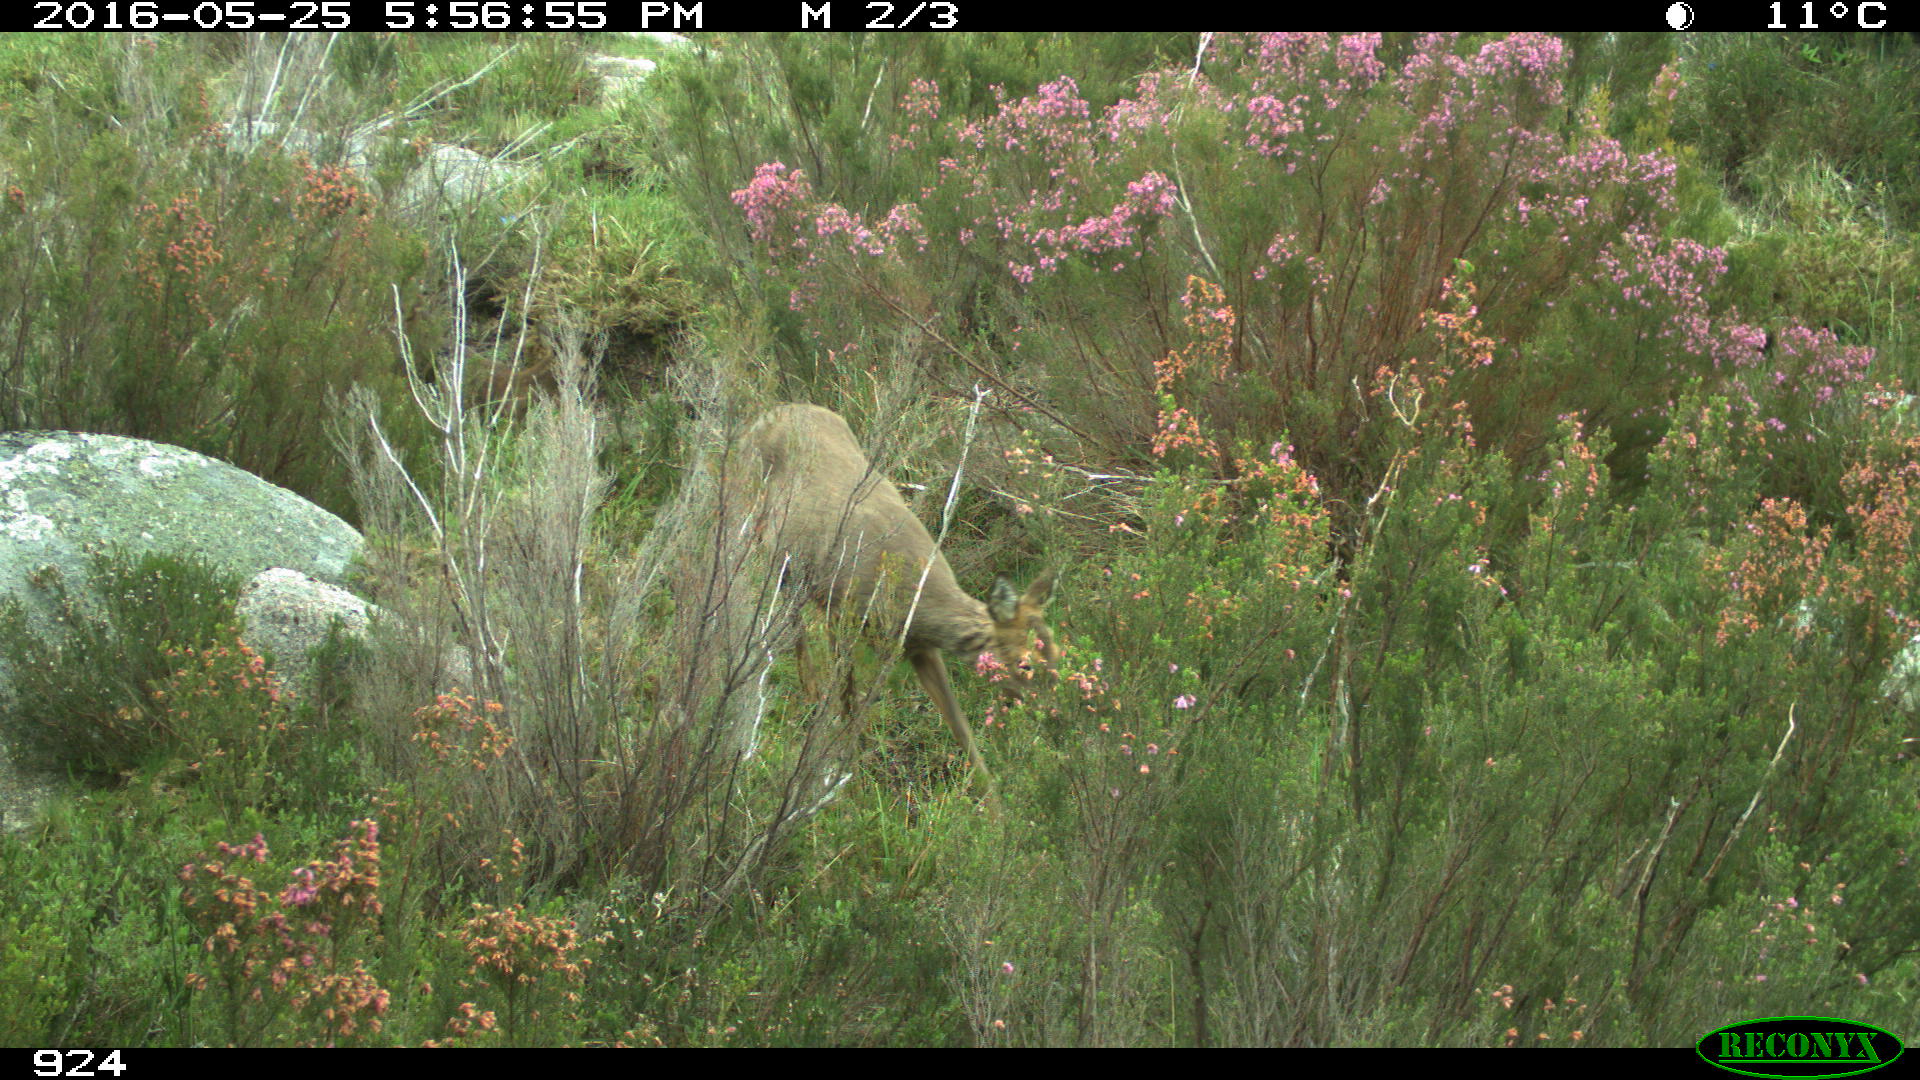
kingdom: Animalia
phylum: Chordata
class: Mammalia
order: Artiodactyla
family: Cervidae
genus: Capreolus
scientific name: Capreolus capreolus
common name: Western roe deer
